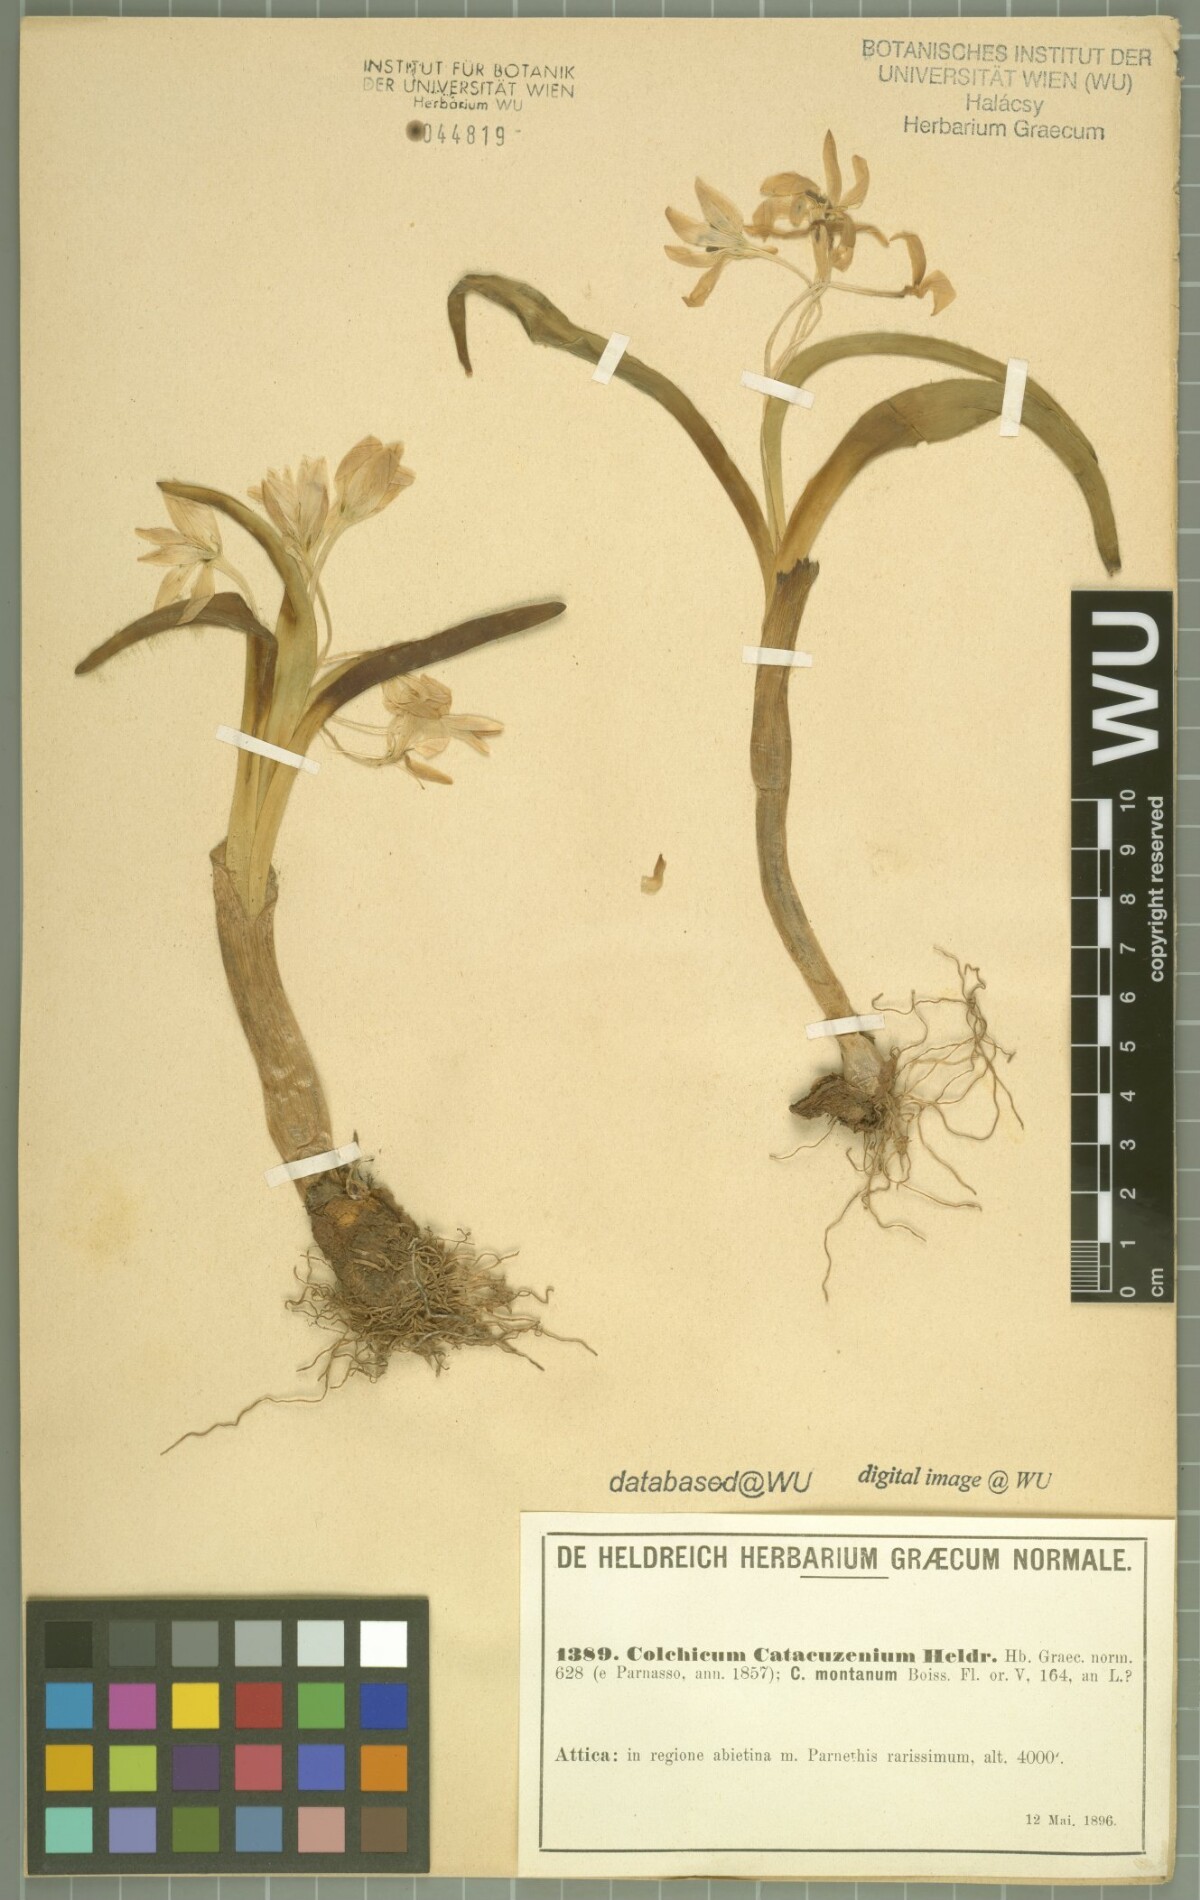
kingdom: Plantae
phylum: Tracheophyta
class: Liliopsida
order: Liliales
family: Colchicaceae
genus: Colchicum
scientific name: Colchicum triphyllum
